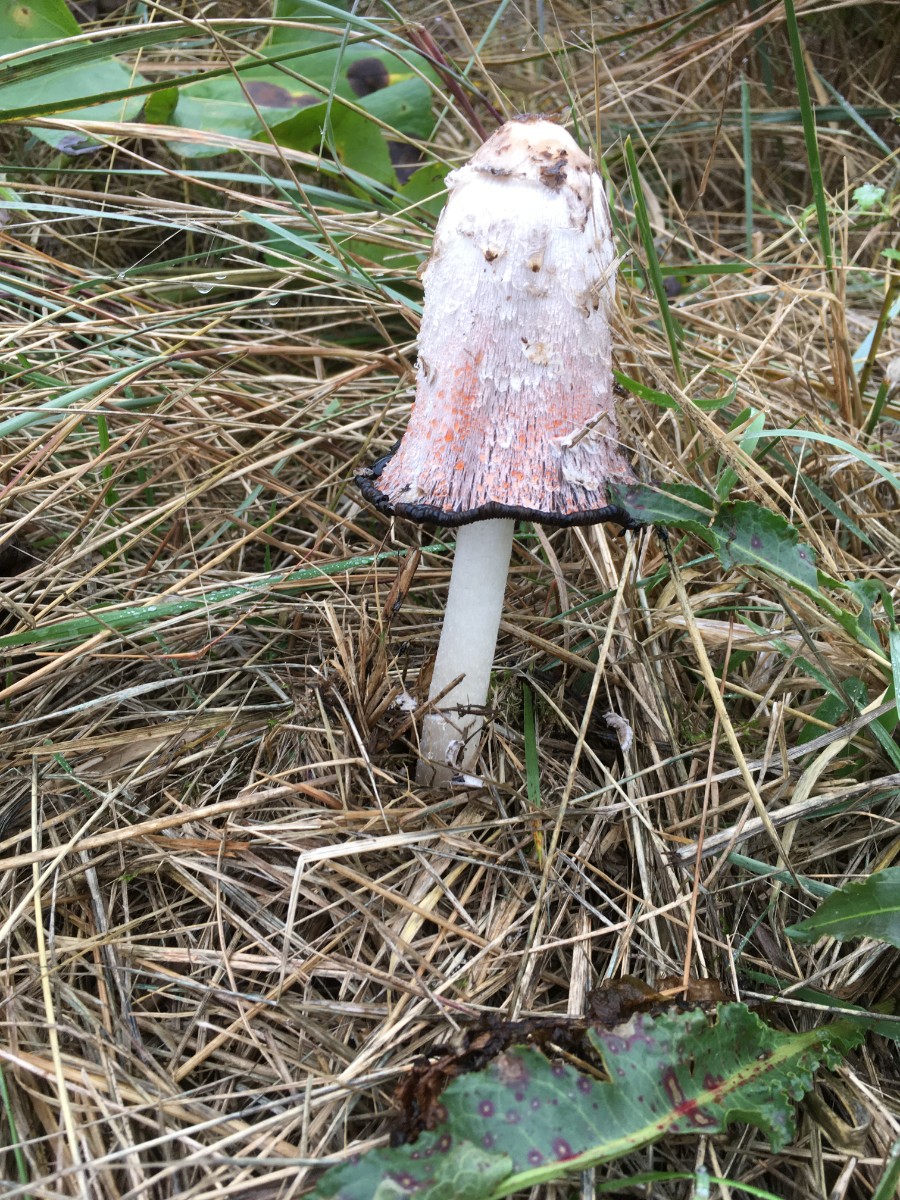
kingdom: Fungi
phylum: Basidiomycota
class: Agaricomycetes
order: Agaricales
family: Agaricaceae
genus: Coprinus
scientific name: Coprinus comatus
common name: stor parykhat
